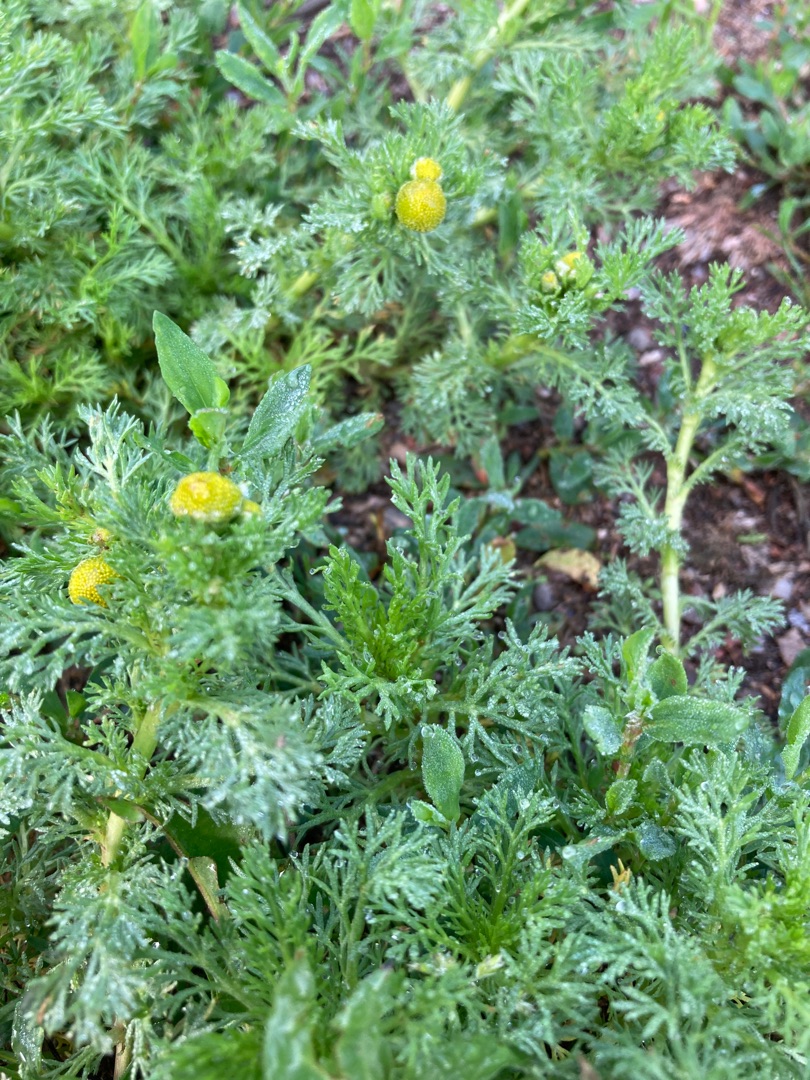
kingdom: Plantae
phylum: Tracheophyta
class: Magnoliopsida
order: Asterales
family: Asteraceae
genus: Matricaria
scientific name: Matricaria discoidea
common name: Skive-kamille
